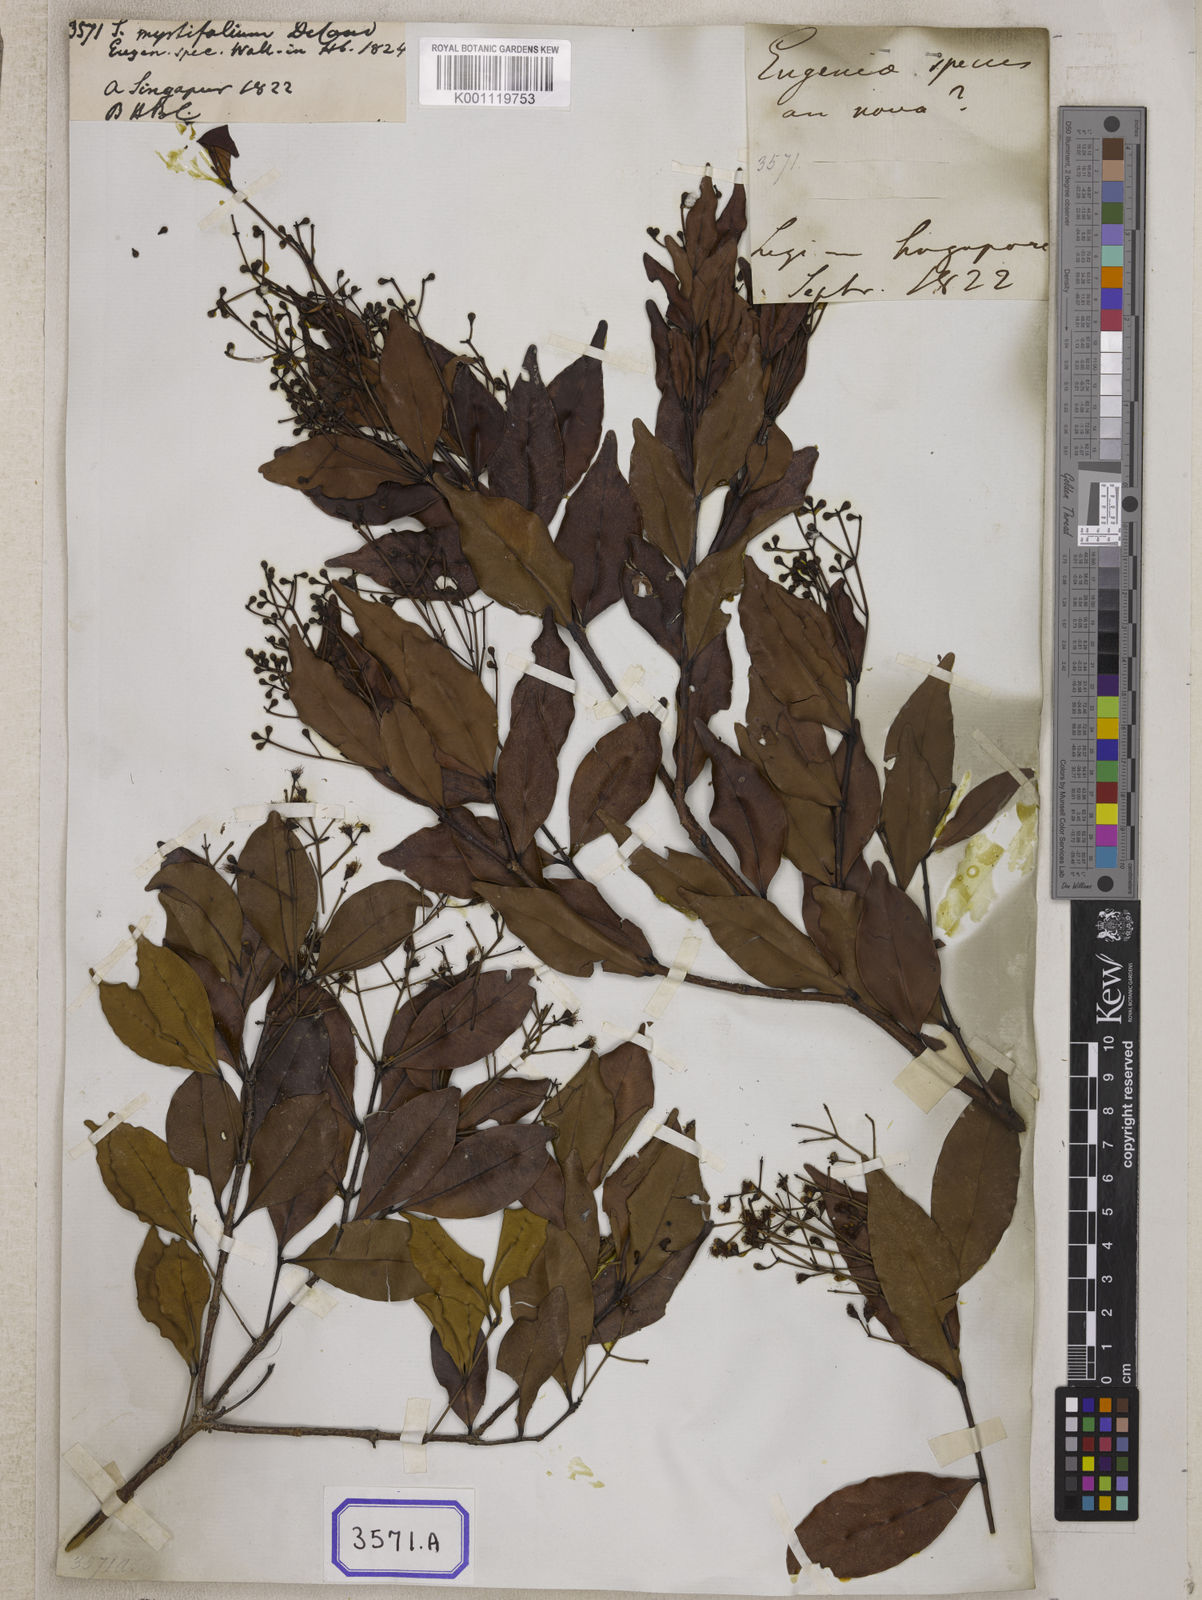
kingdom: Plantae
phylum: Tracheophyta
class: Magnoliopsida
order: Myrtales
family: Myrtaceae
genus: Syzygium
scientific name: Syzygium
